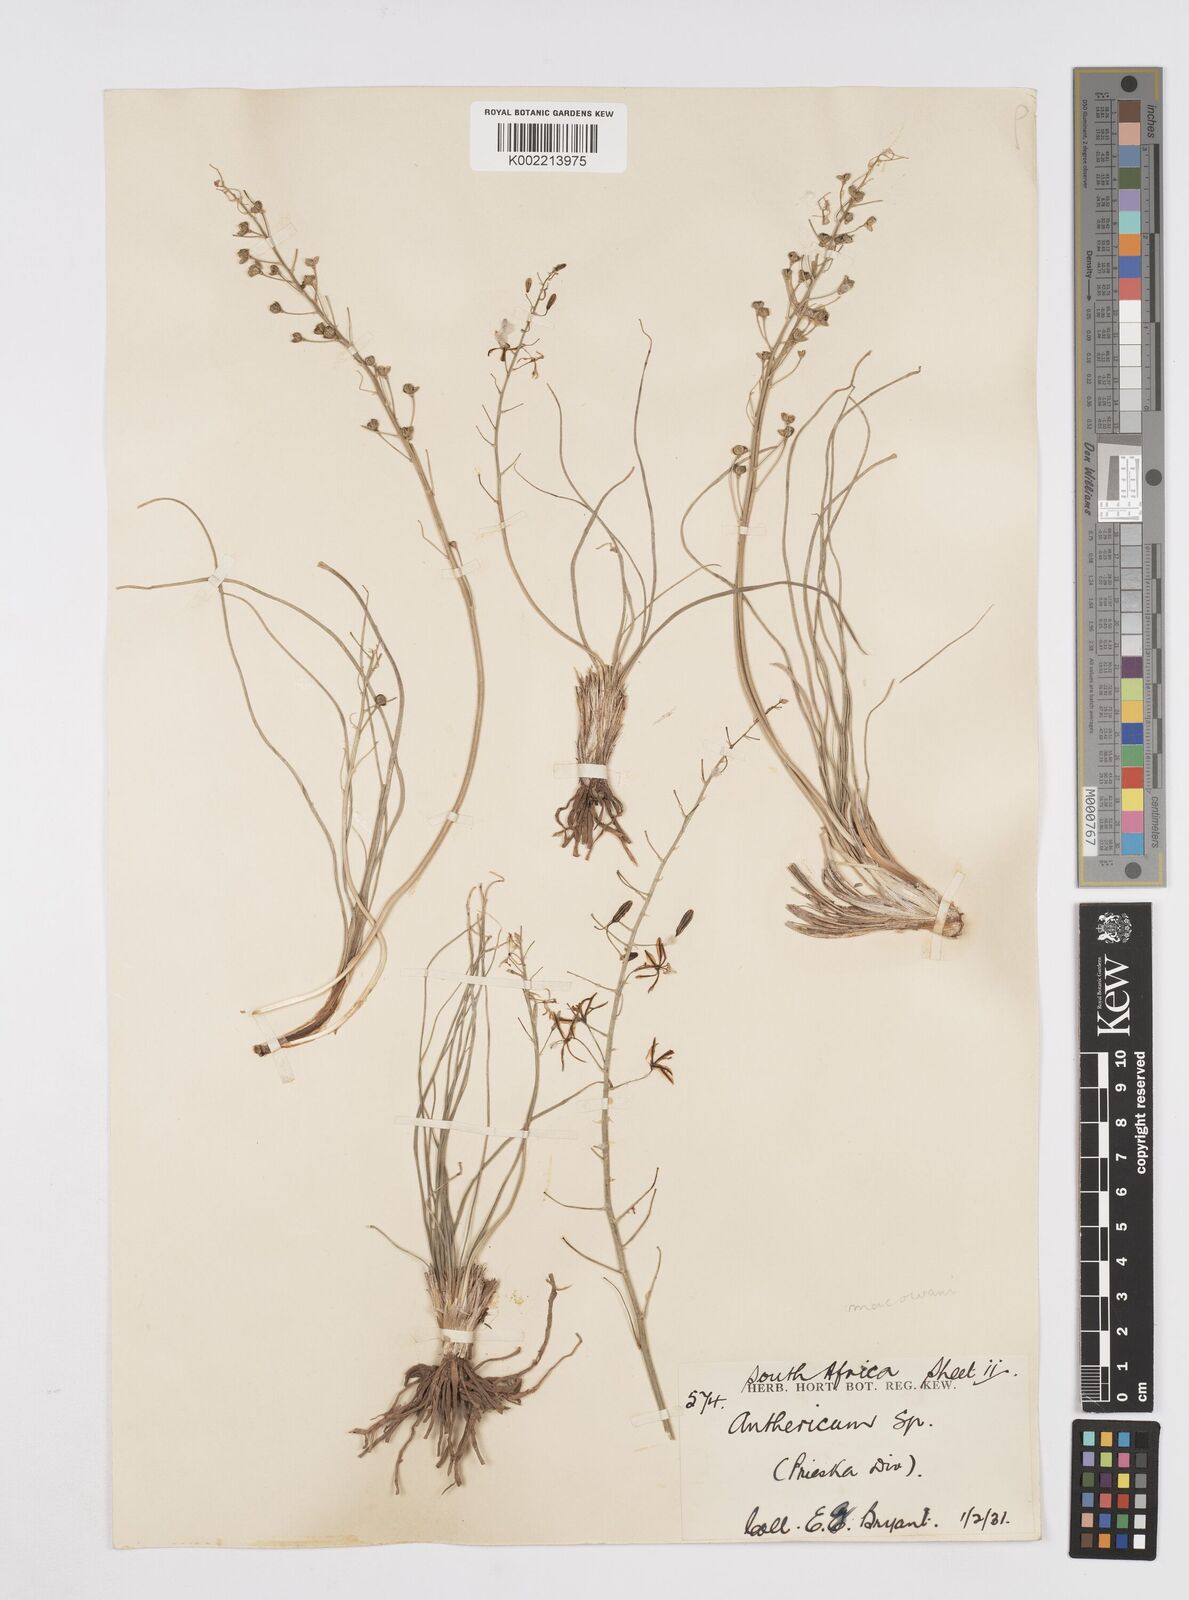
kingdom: Plantae
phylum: Tracheophyta
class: Liliopsida
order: Asparagales
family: Asphodelaceae
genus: Trachyandra
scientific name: Trachyandra asperata
